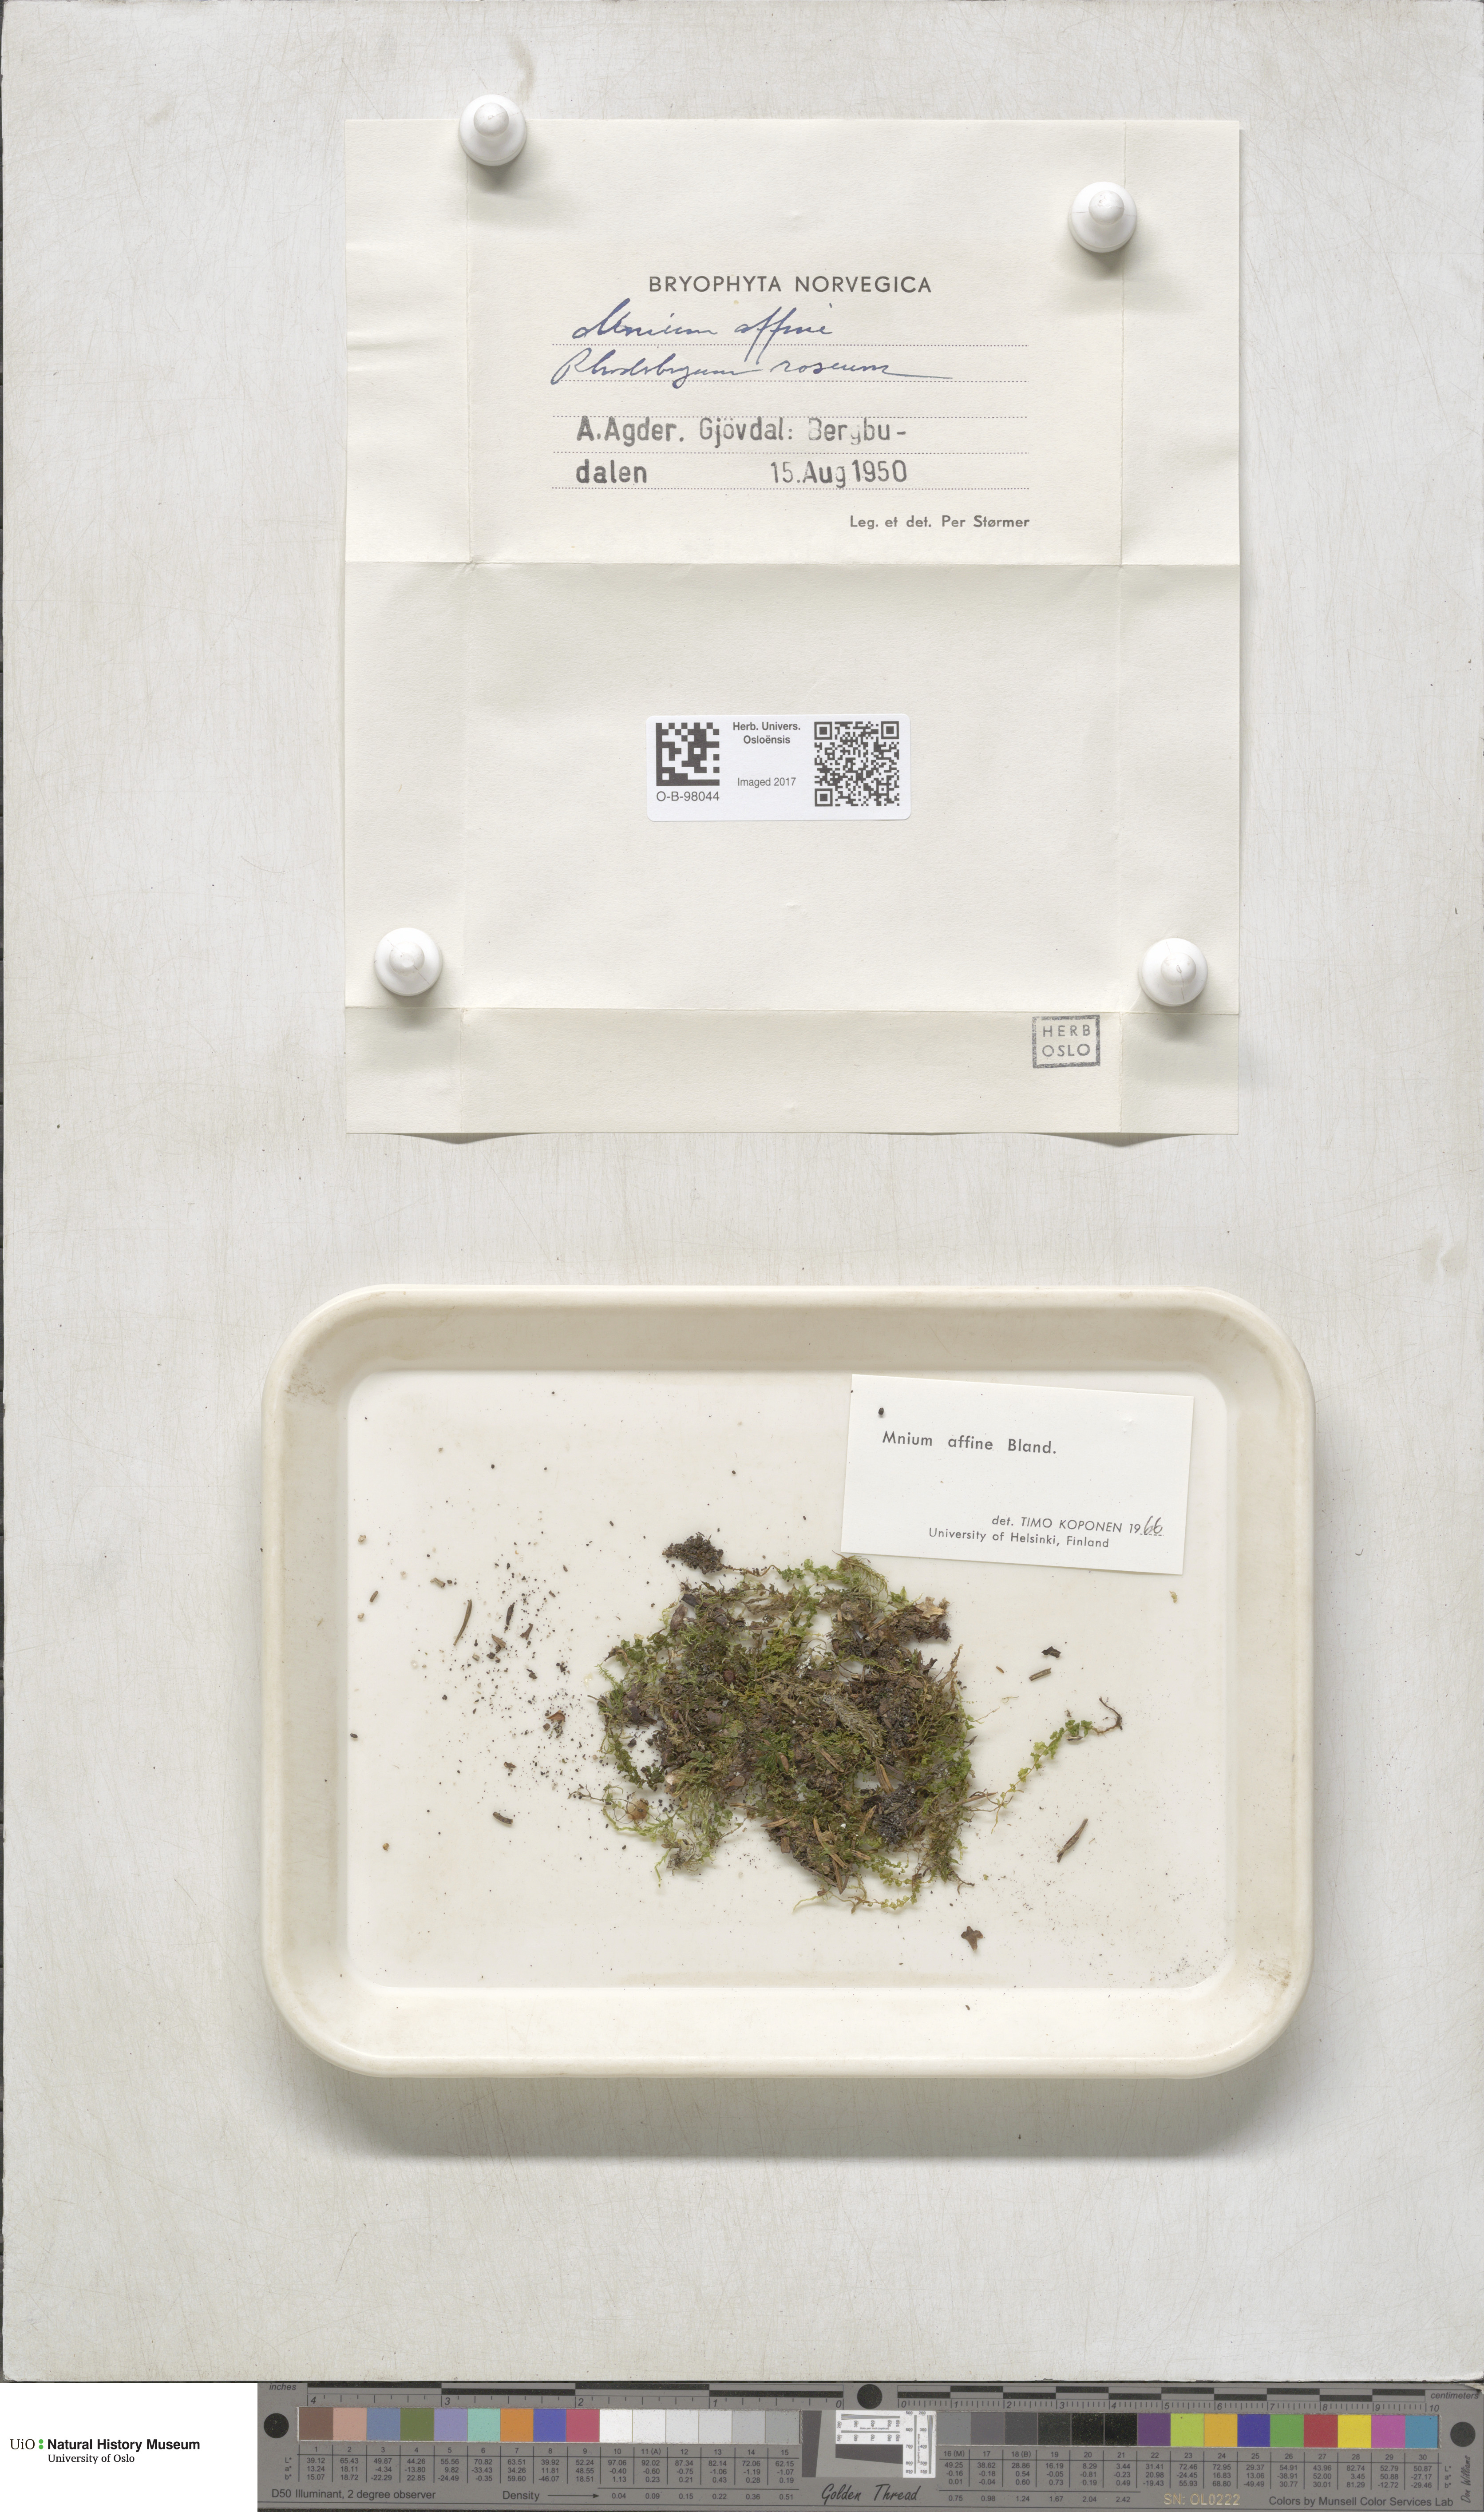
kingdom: Plantae
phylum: Bryophyta
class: Bryopsida
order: Bryales
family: Mniaceae
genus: Plagiomnium
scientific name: Plagiomnium affine
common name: Many-fruited thyme-moss
